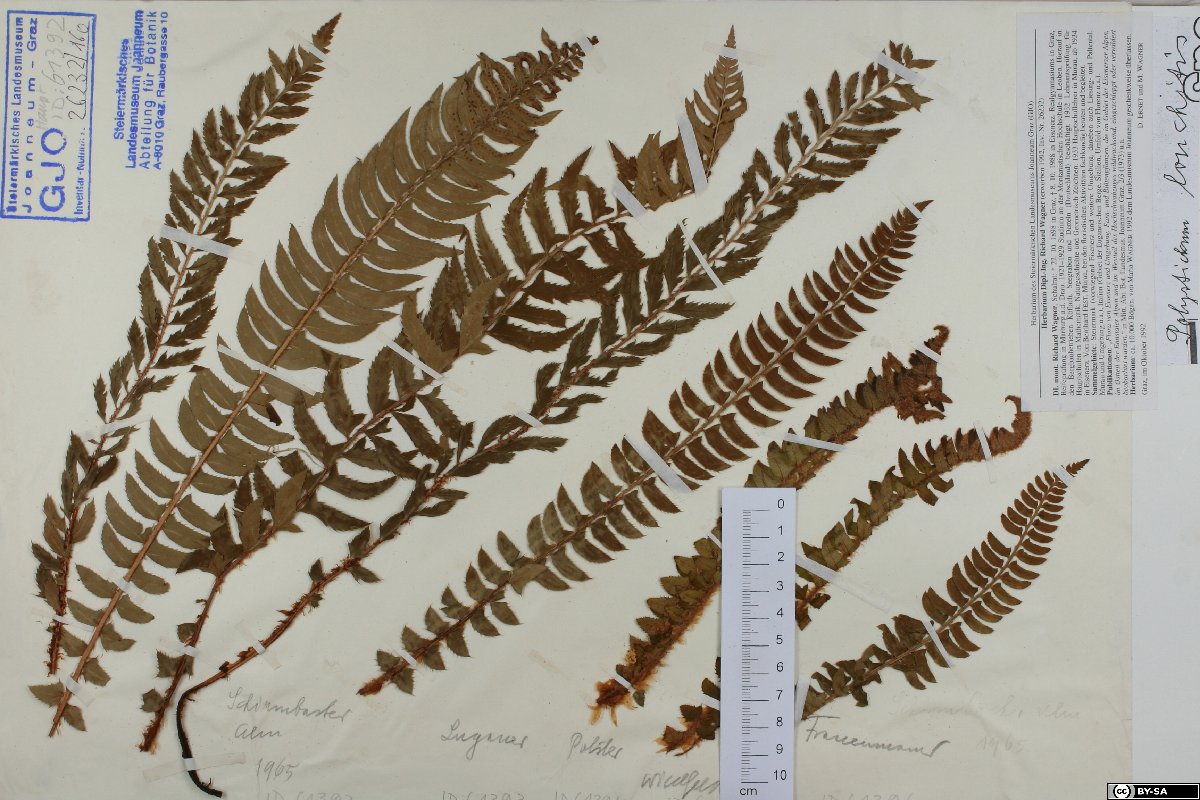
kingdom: Plantae
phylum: Tracheophyta
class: Polypodiopsida
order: Polypodiales
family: Dryopteridaceae
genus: Polystichum
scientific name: Polystichum lonchitis
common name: Holly fern
